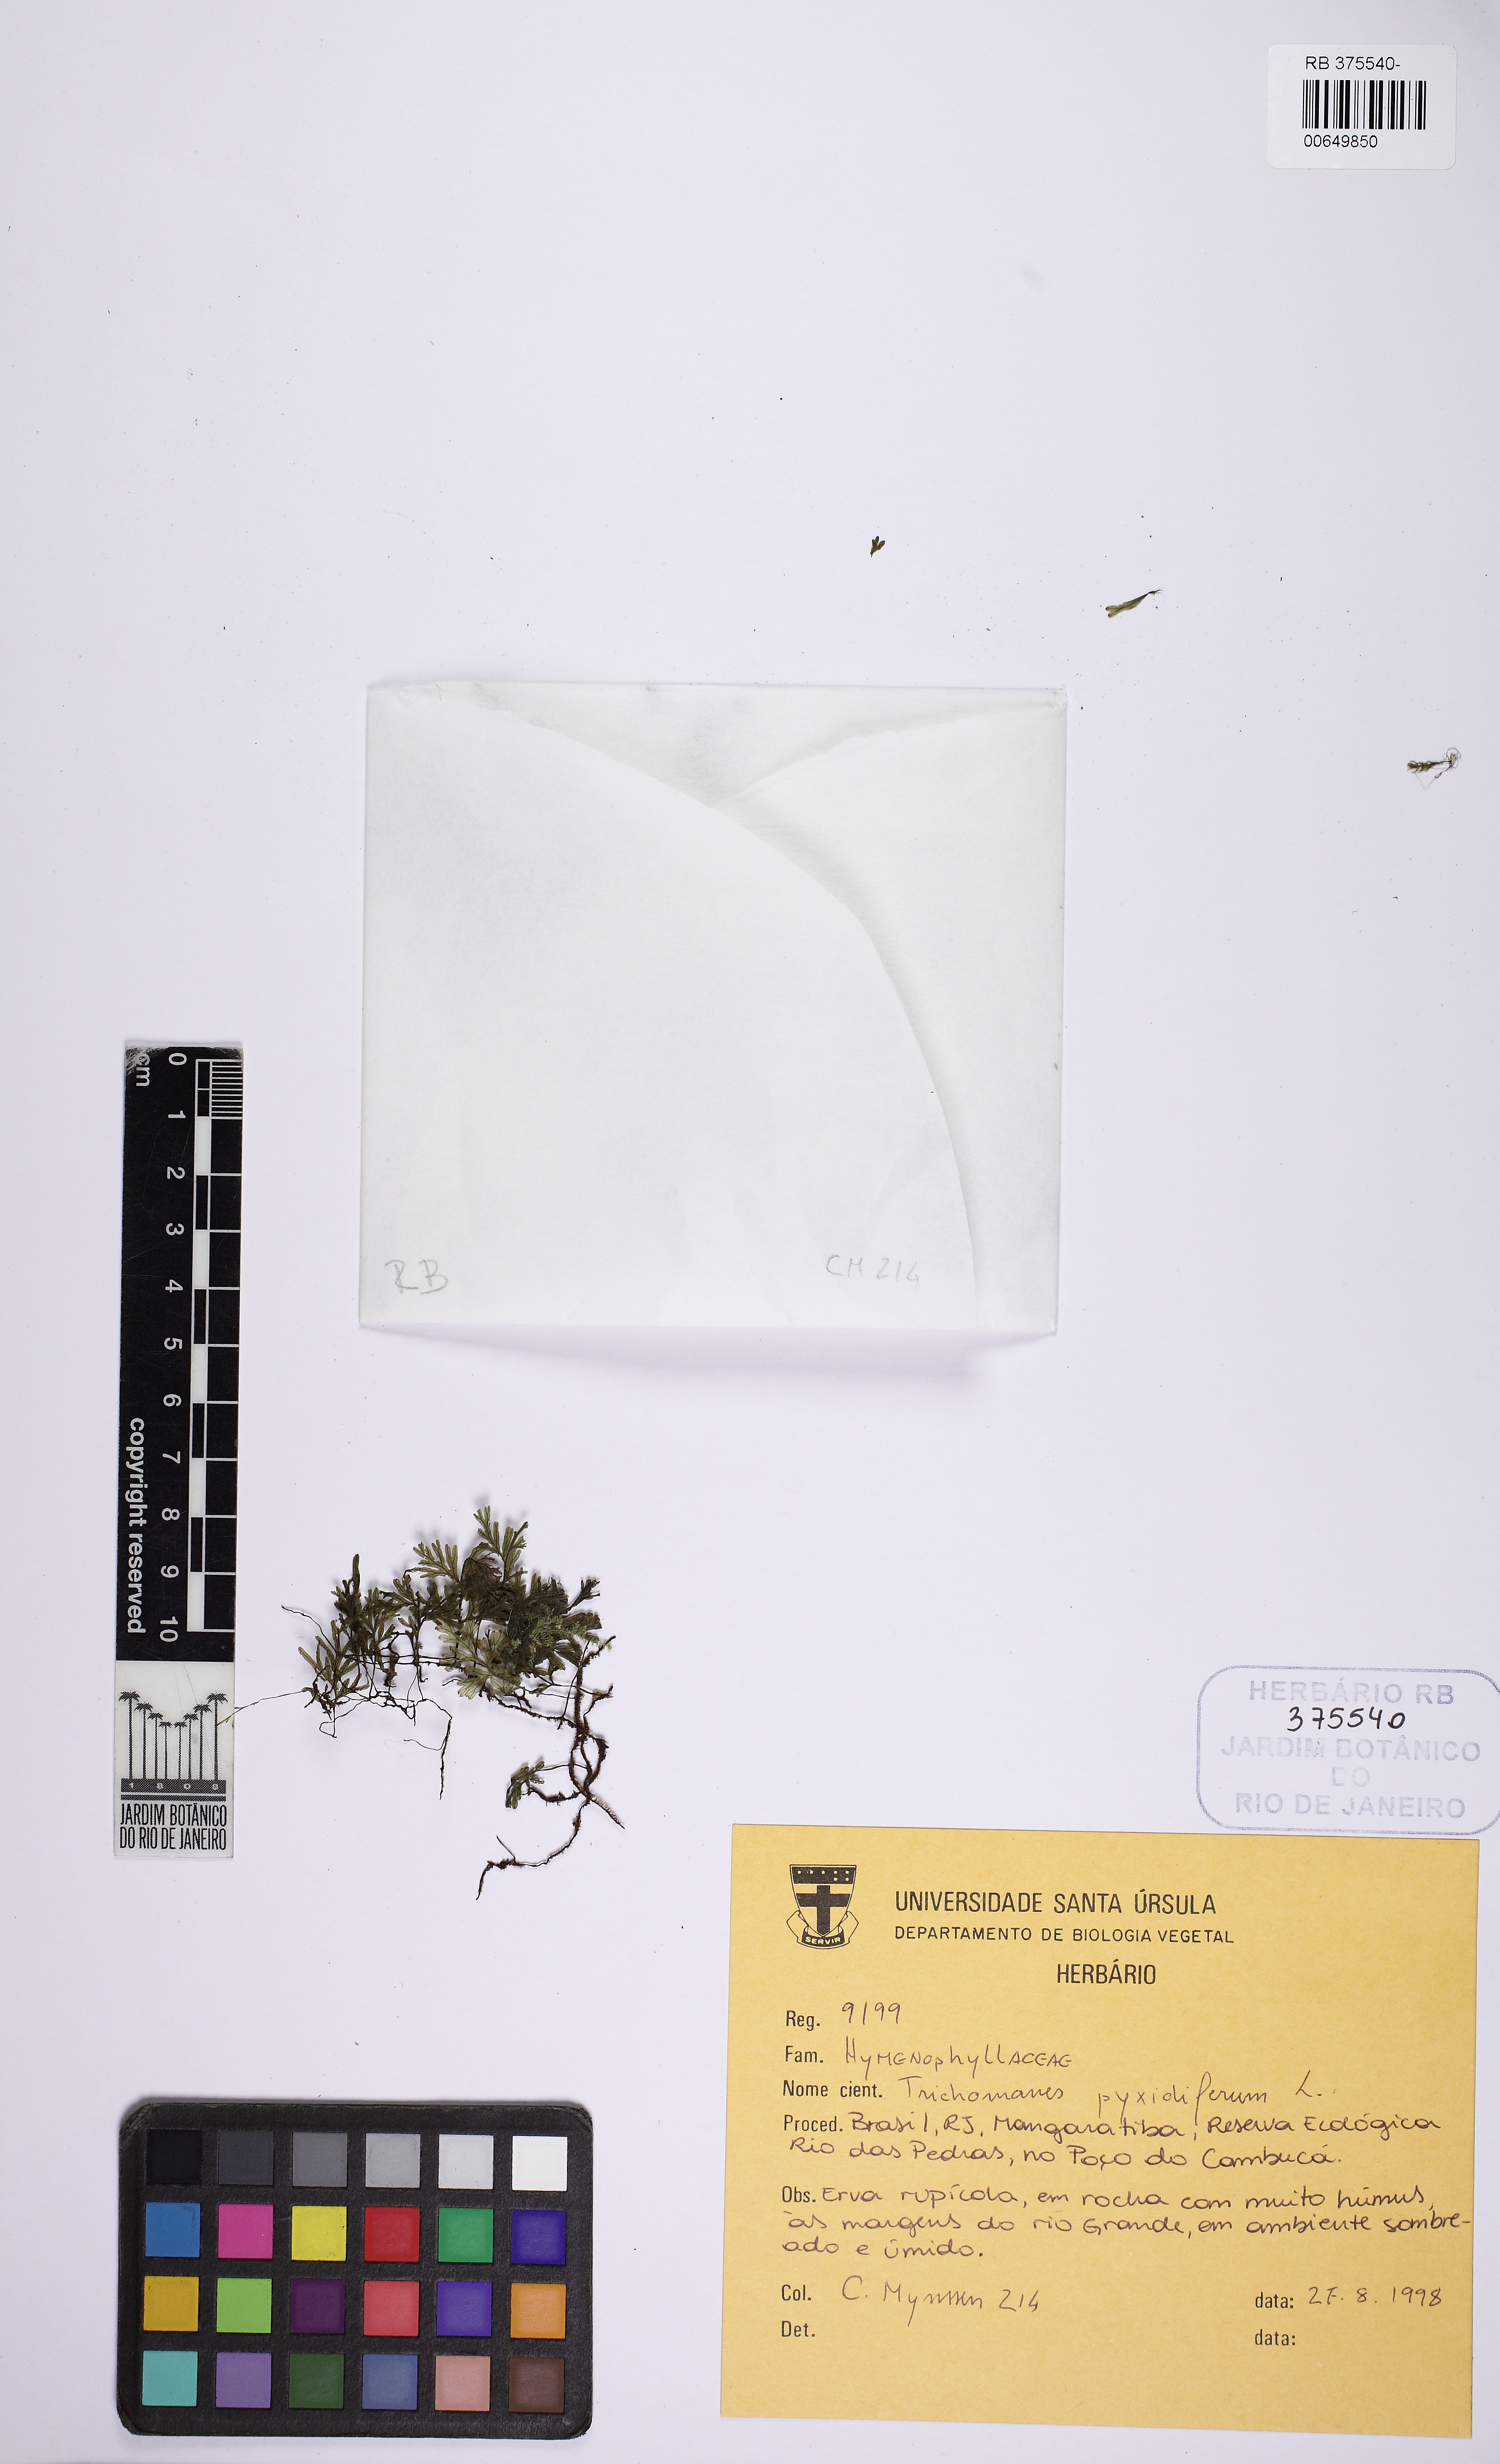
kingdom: Plantae
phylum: Tracheophyta
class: Polypodiopsida
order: Hymenophyllales
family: Hymenophyllaceae
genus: Polyphlebium
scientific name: Polyphlebium pyxidiferum
